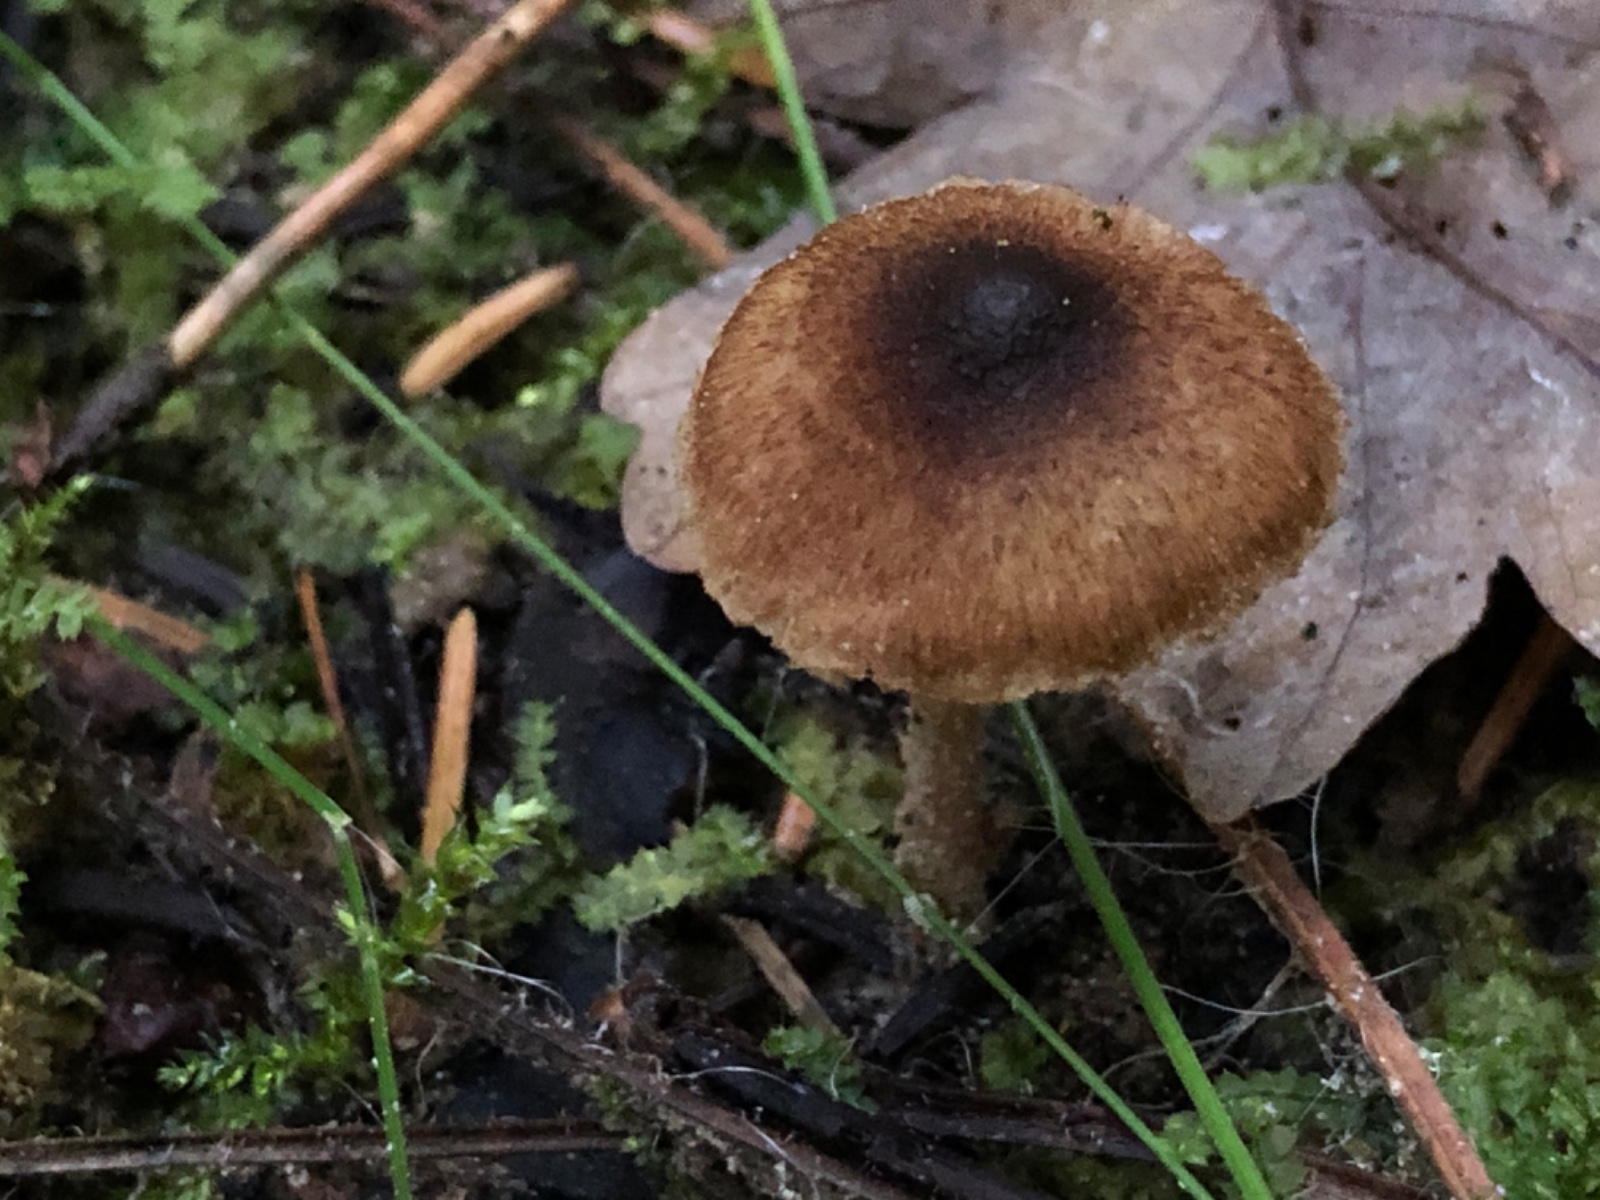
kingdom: Fungi
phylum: Basidiomycota
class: Agaricomycetes
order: Agaricales
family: Inocybaceae
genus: Inocybe
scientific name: Inocybe
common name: trævlhat
